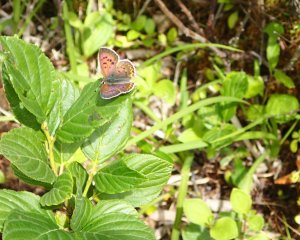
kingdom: Animalia
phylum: Arthropoda
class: Insecta
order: Lepidoptera
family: Lycaenidae
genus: Epidemia
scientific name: Epidemia dorcas
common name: Dorcas Copper
